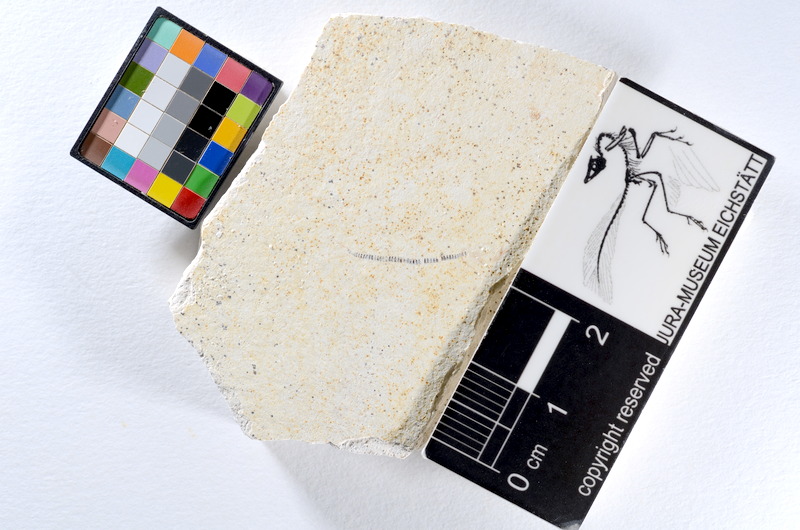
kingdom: Animalia
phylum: Chordata
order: Salmoniformes
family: Orthogonikleithridae
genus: Orthogonikleithrus
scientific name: Orthogonikleithrus hoelli
